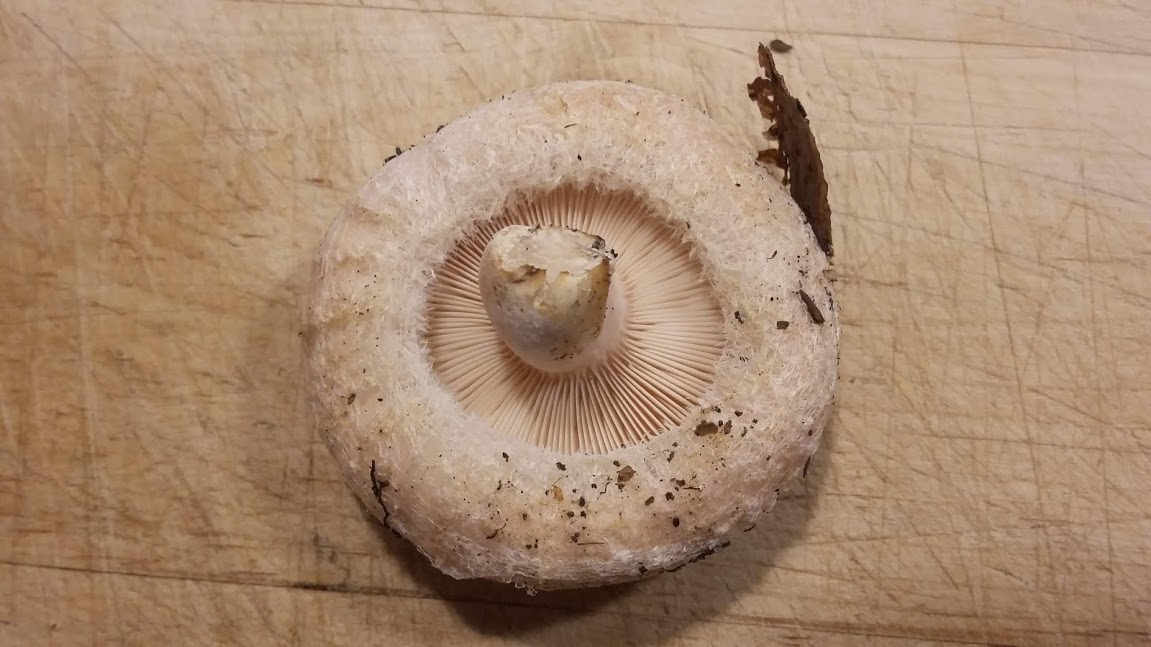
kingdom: Fungi
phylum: Basidiomycota
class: Agaricomycetes
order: Russulales
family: Russulaceae
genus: Lactarius
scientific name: Lactarius pubescens
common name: dunet mælkehat
